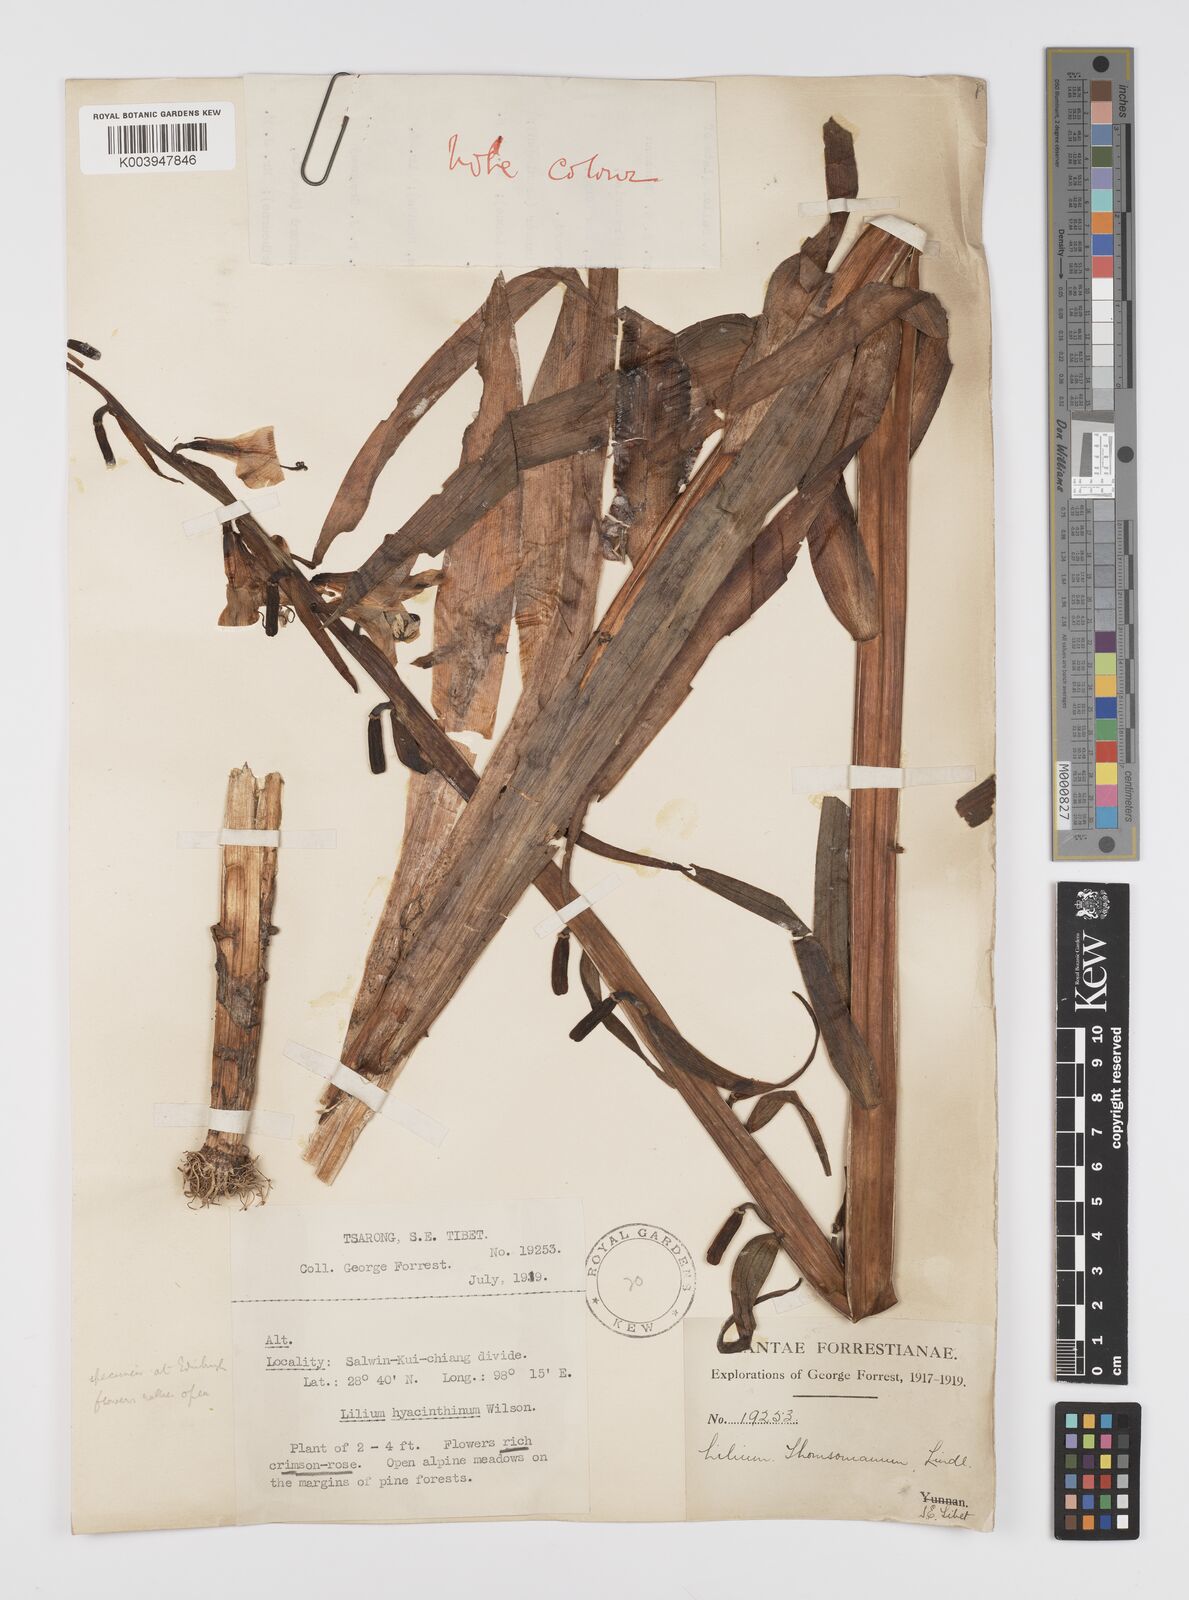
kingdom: Plantae
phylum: Tracheophyta
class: Liliopsida
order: Liliales
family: Liliaceae
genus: Notholirion
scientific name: Notholirion bulbuliferum
